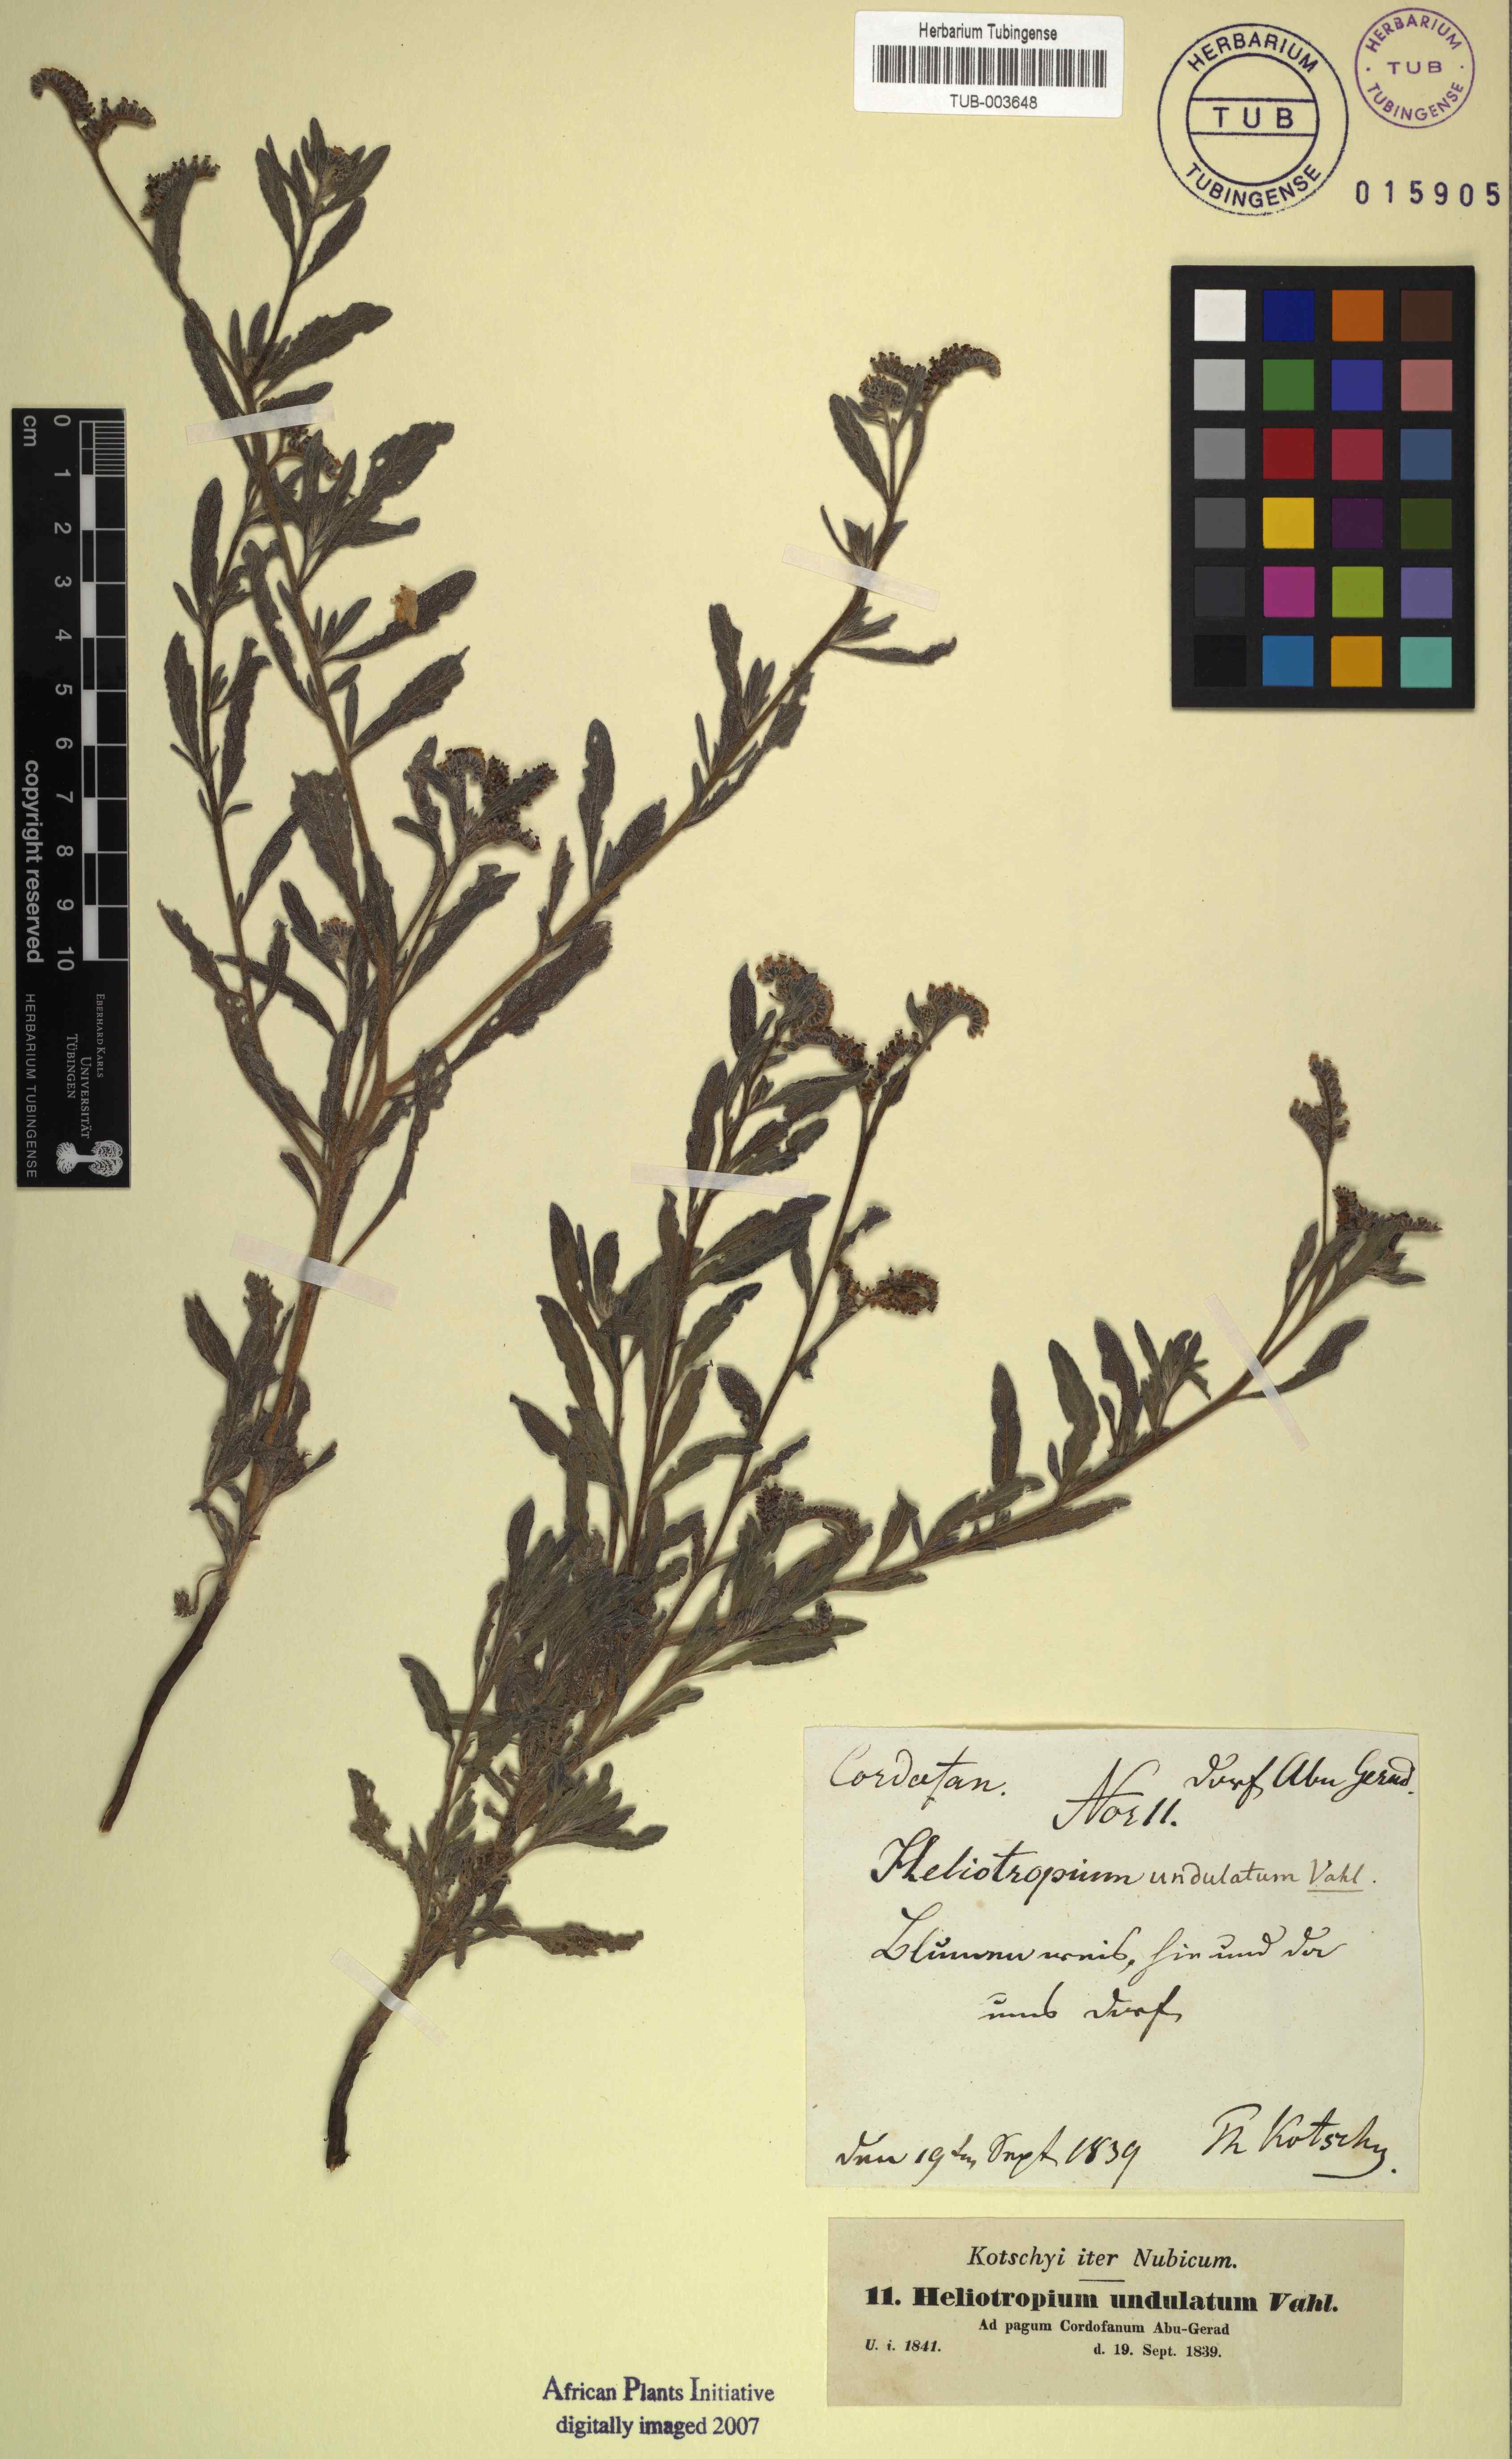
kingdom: Plantae
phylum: Tracheophyta
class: Magnoliopsida
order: Boraginales
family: Heliotropiaceae
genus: Heliotropium
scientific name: Heliotropium bacciferum
